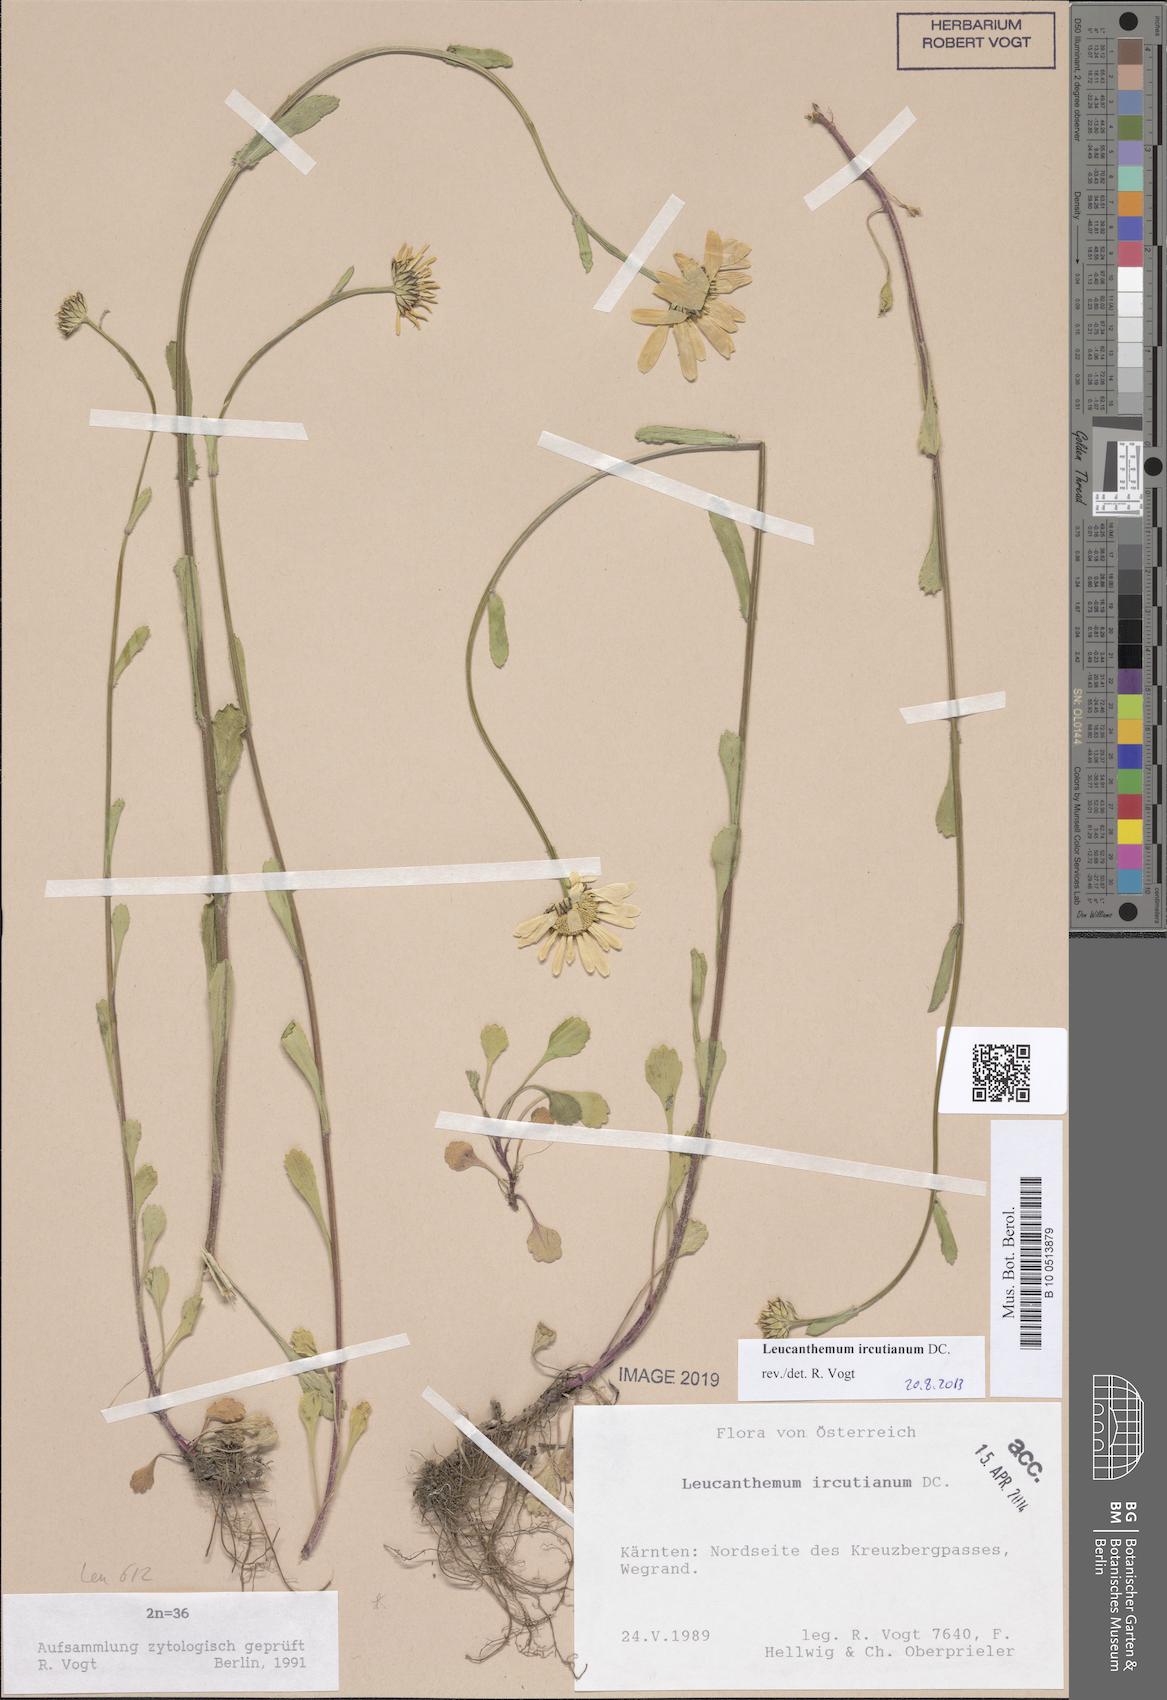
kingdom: Plantae
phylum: Tracheophyta
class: Magnoliopsida
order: Asterales
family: Asteraceae
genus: Leucanthemum
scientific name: Leucanthemum ircutianum
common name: Daisy
